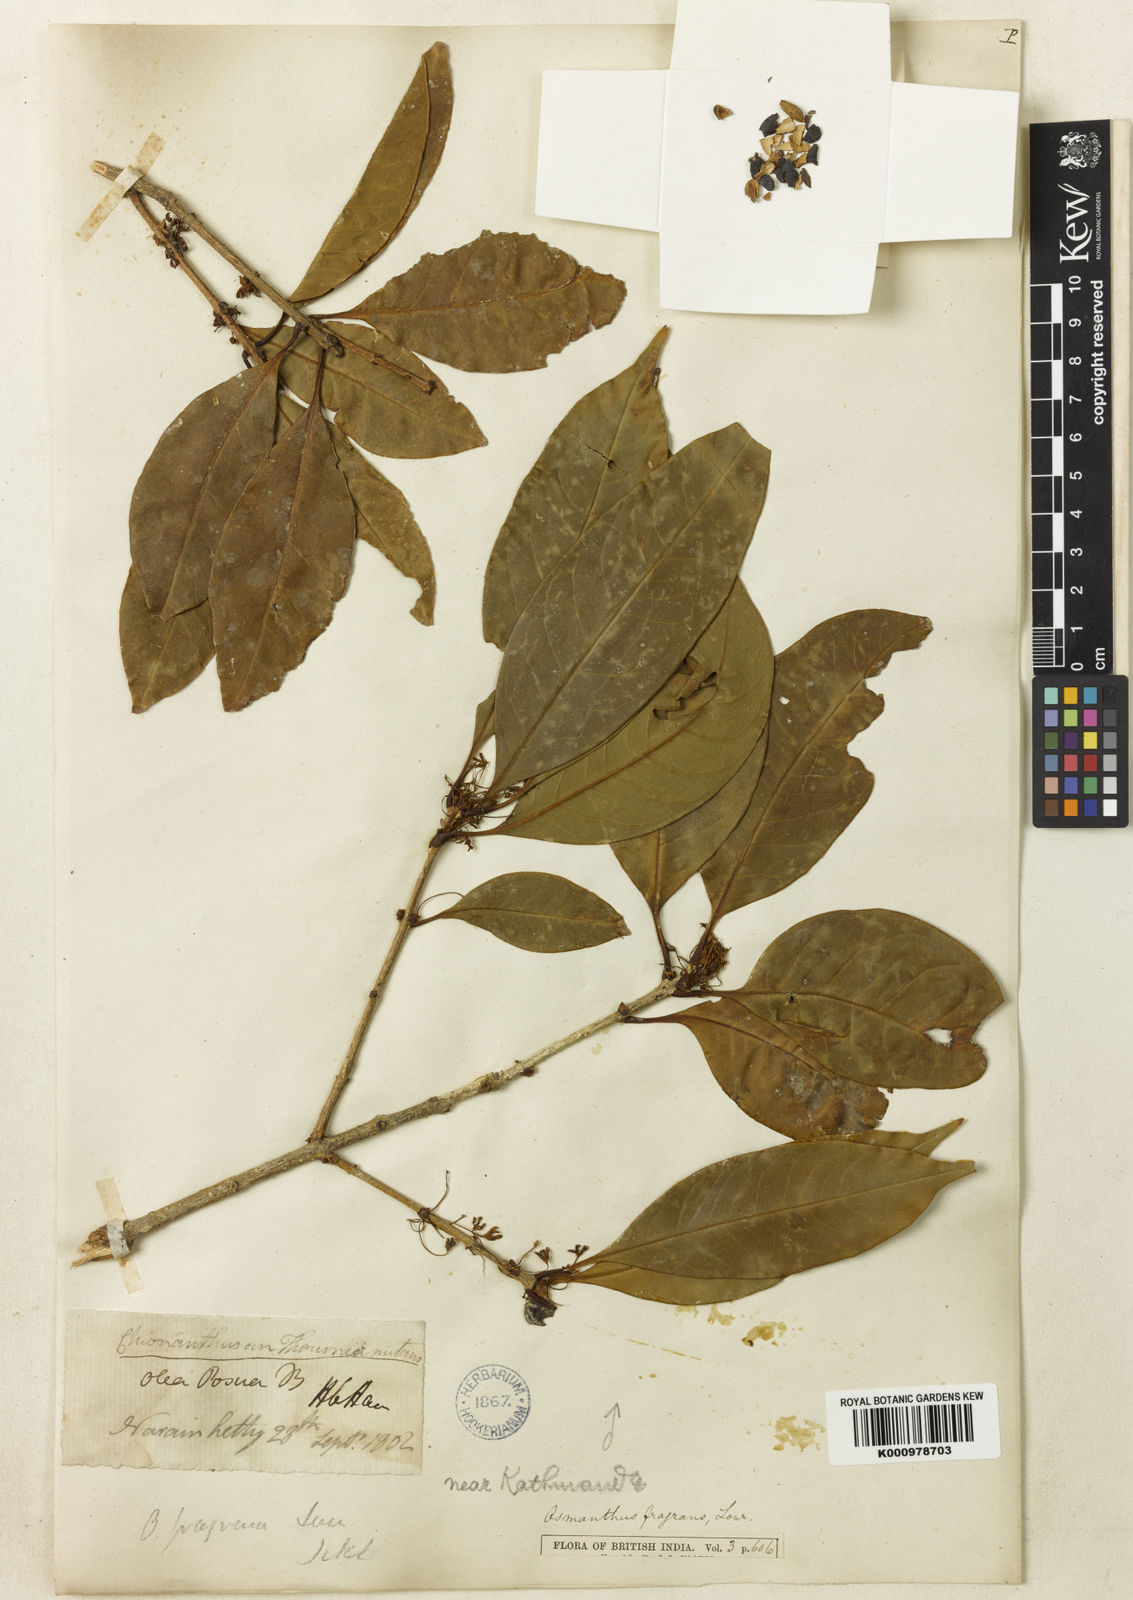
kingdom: Plantae
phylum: Tracheophyta
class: Magnoliopsida
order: Lamiales
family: Oleaceae
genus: Osmanthus
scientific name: Osmanthus fragrans
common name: Sweet osmanthus
